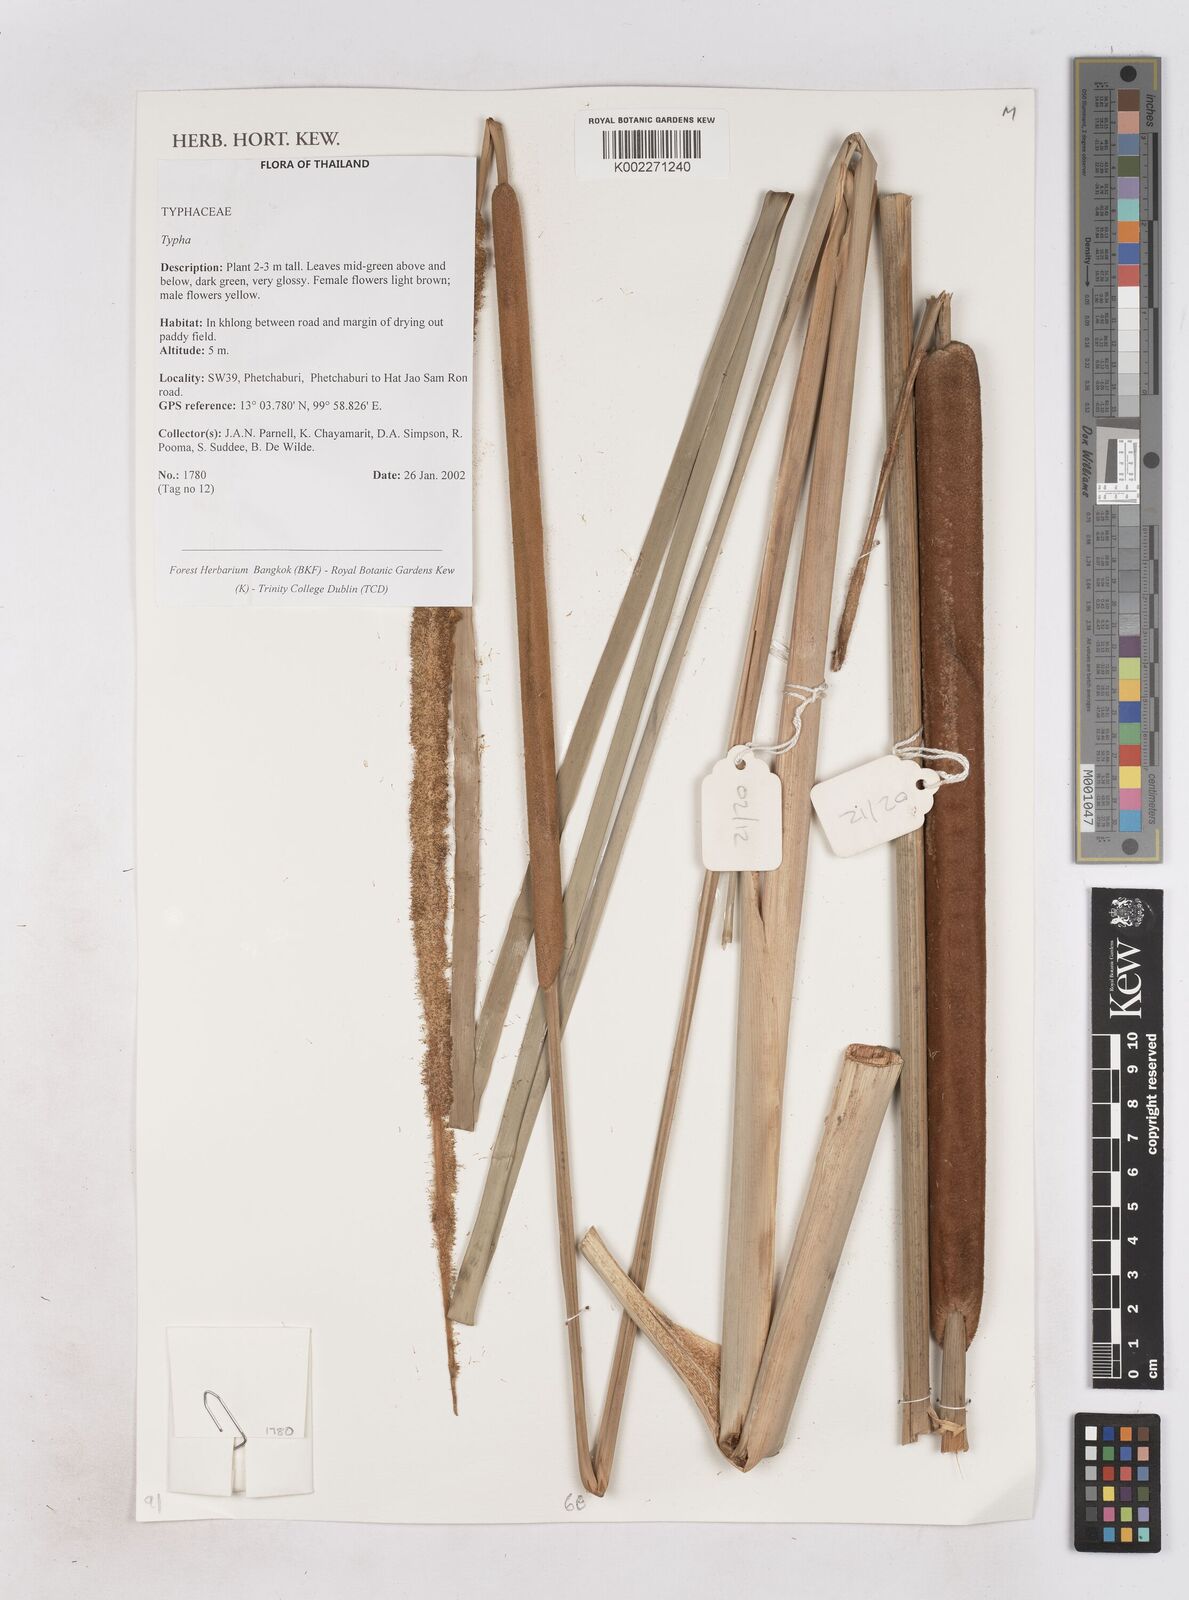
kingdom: Plantae
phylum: Tracheophyta
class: Liliopsida
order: Poales
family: Typhaceae
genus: Typha
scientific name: Typha
